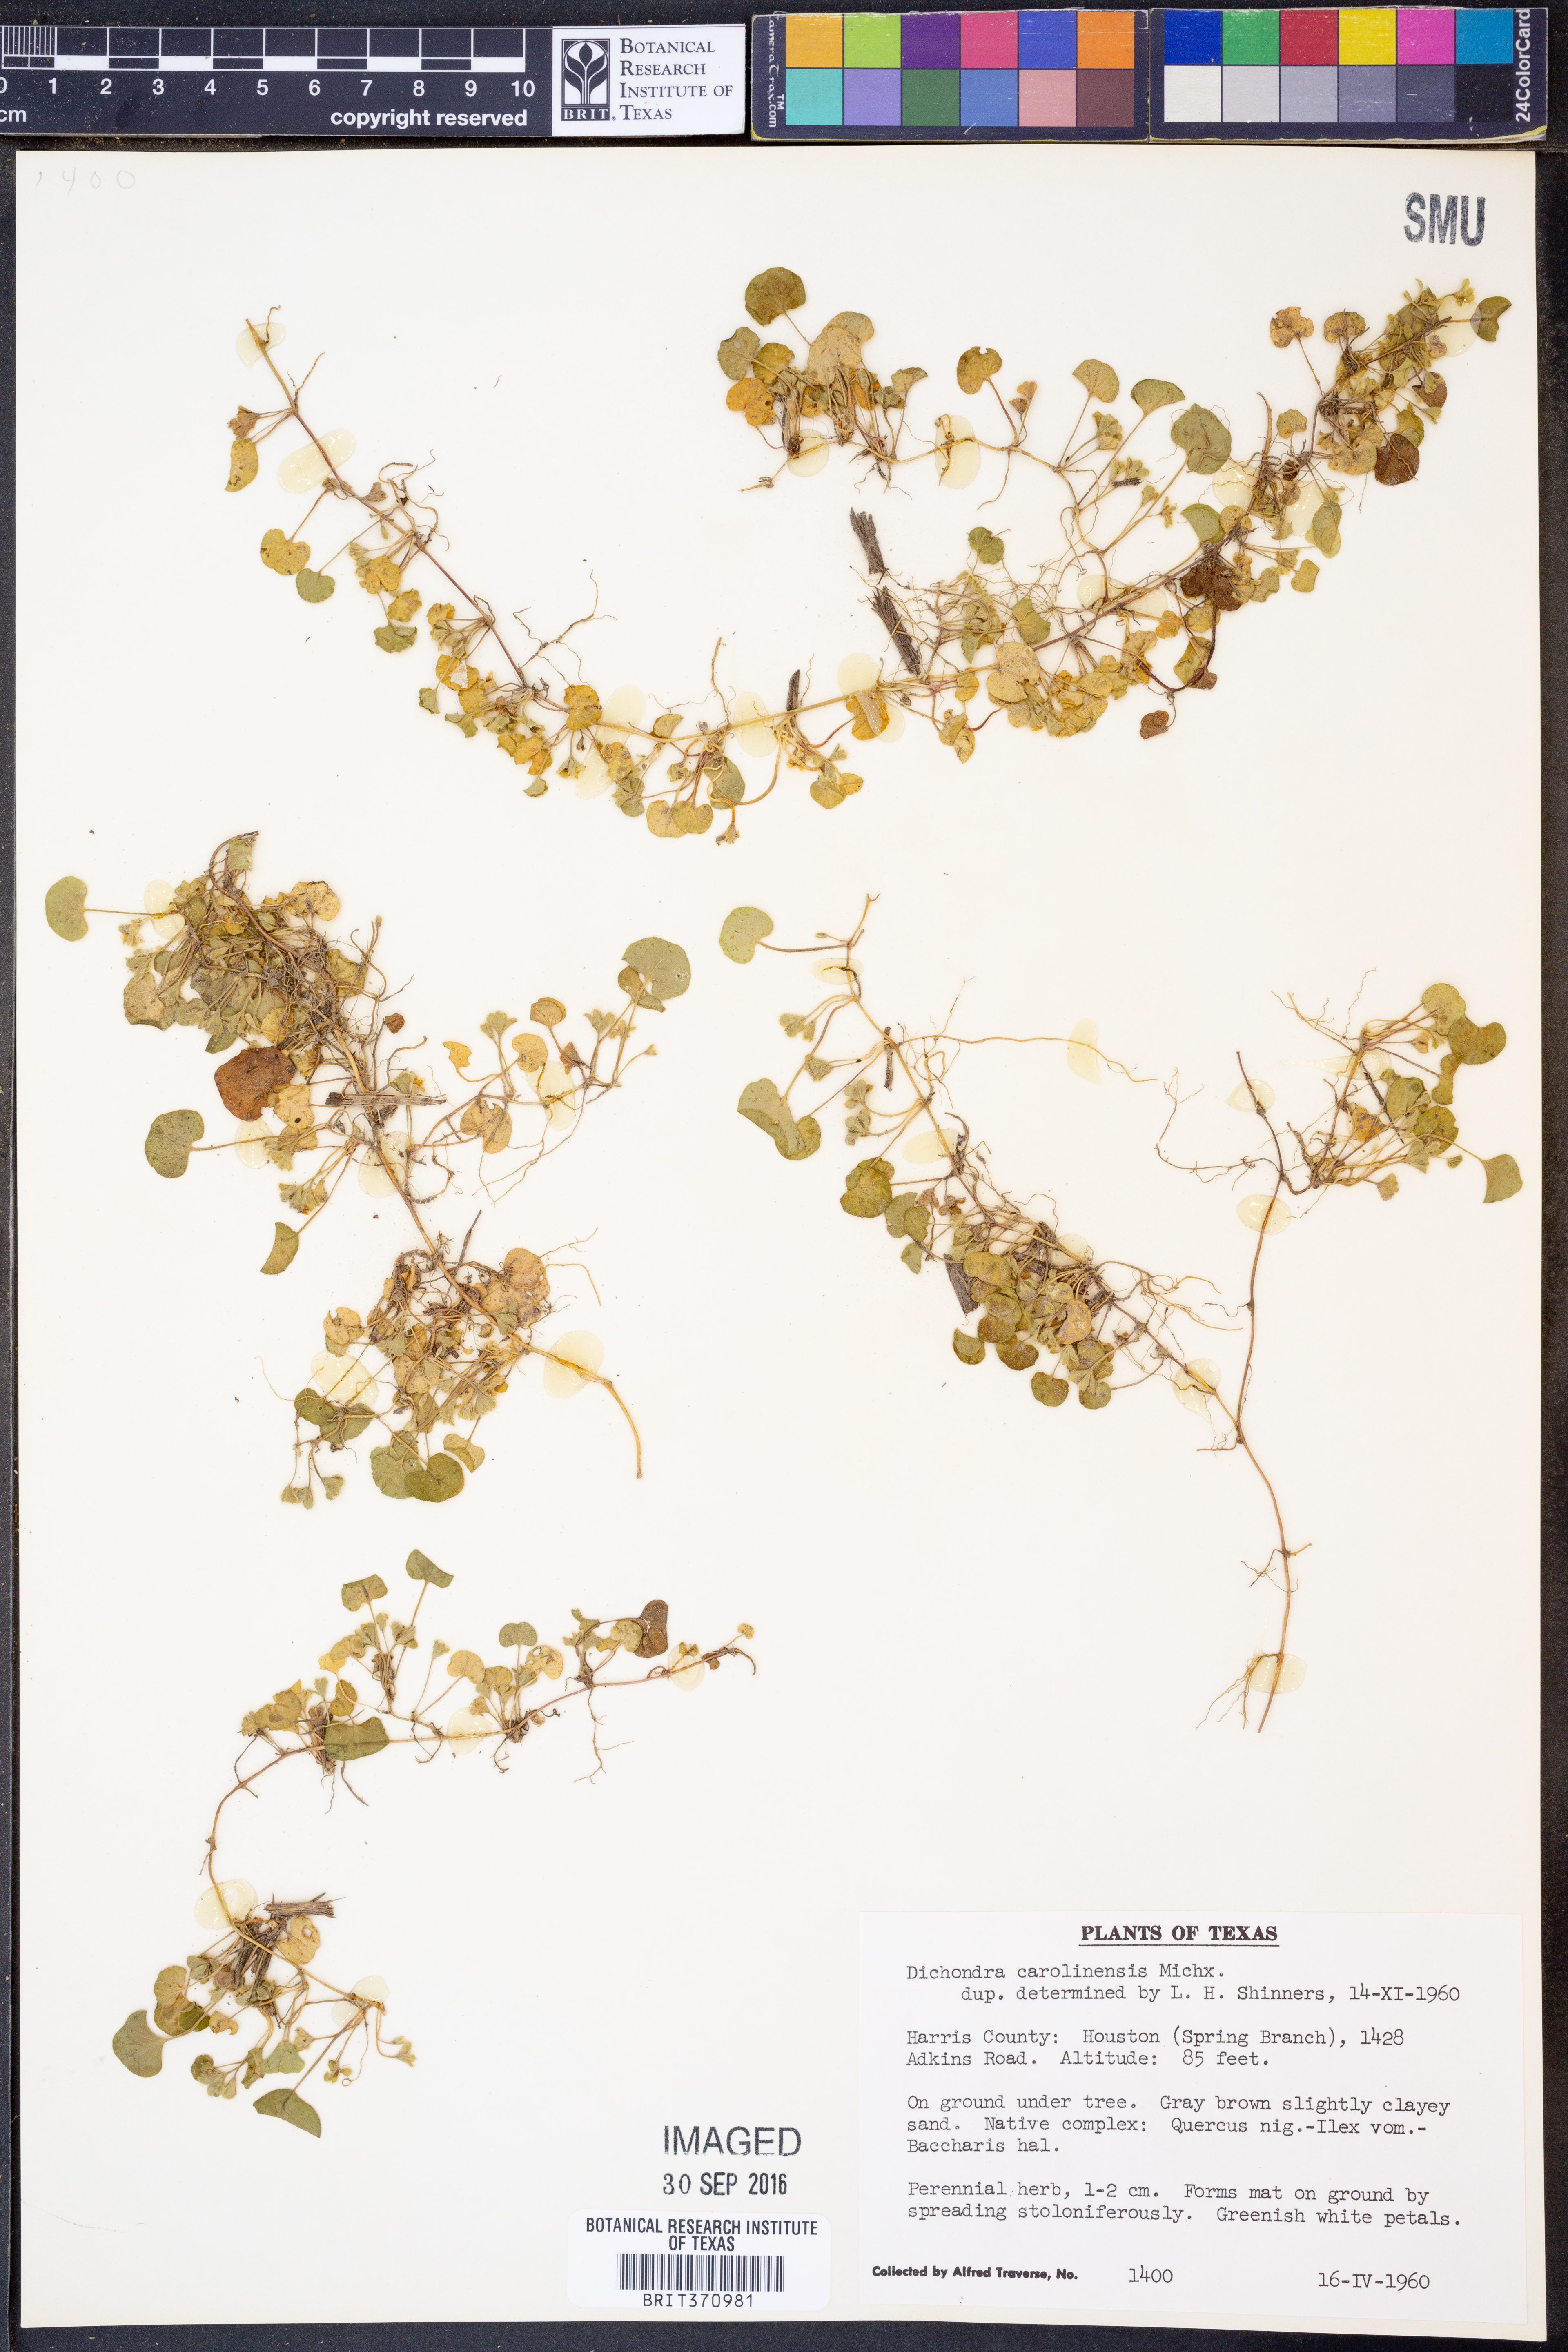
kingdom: Plantae
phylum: Tracheophyta
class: Magnoliopsida
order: Solanales
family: Convolvulaceae
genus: Dichondra
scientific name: Dichondra carolinensis
